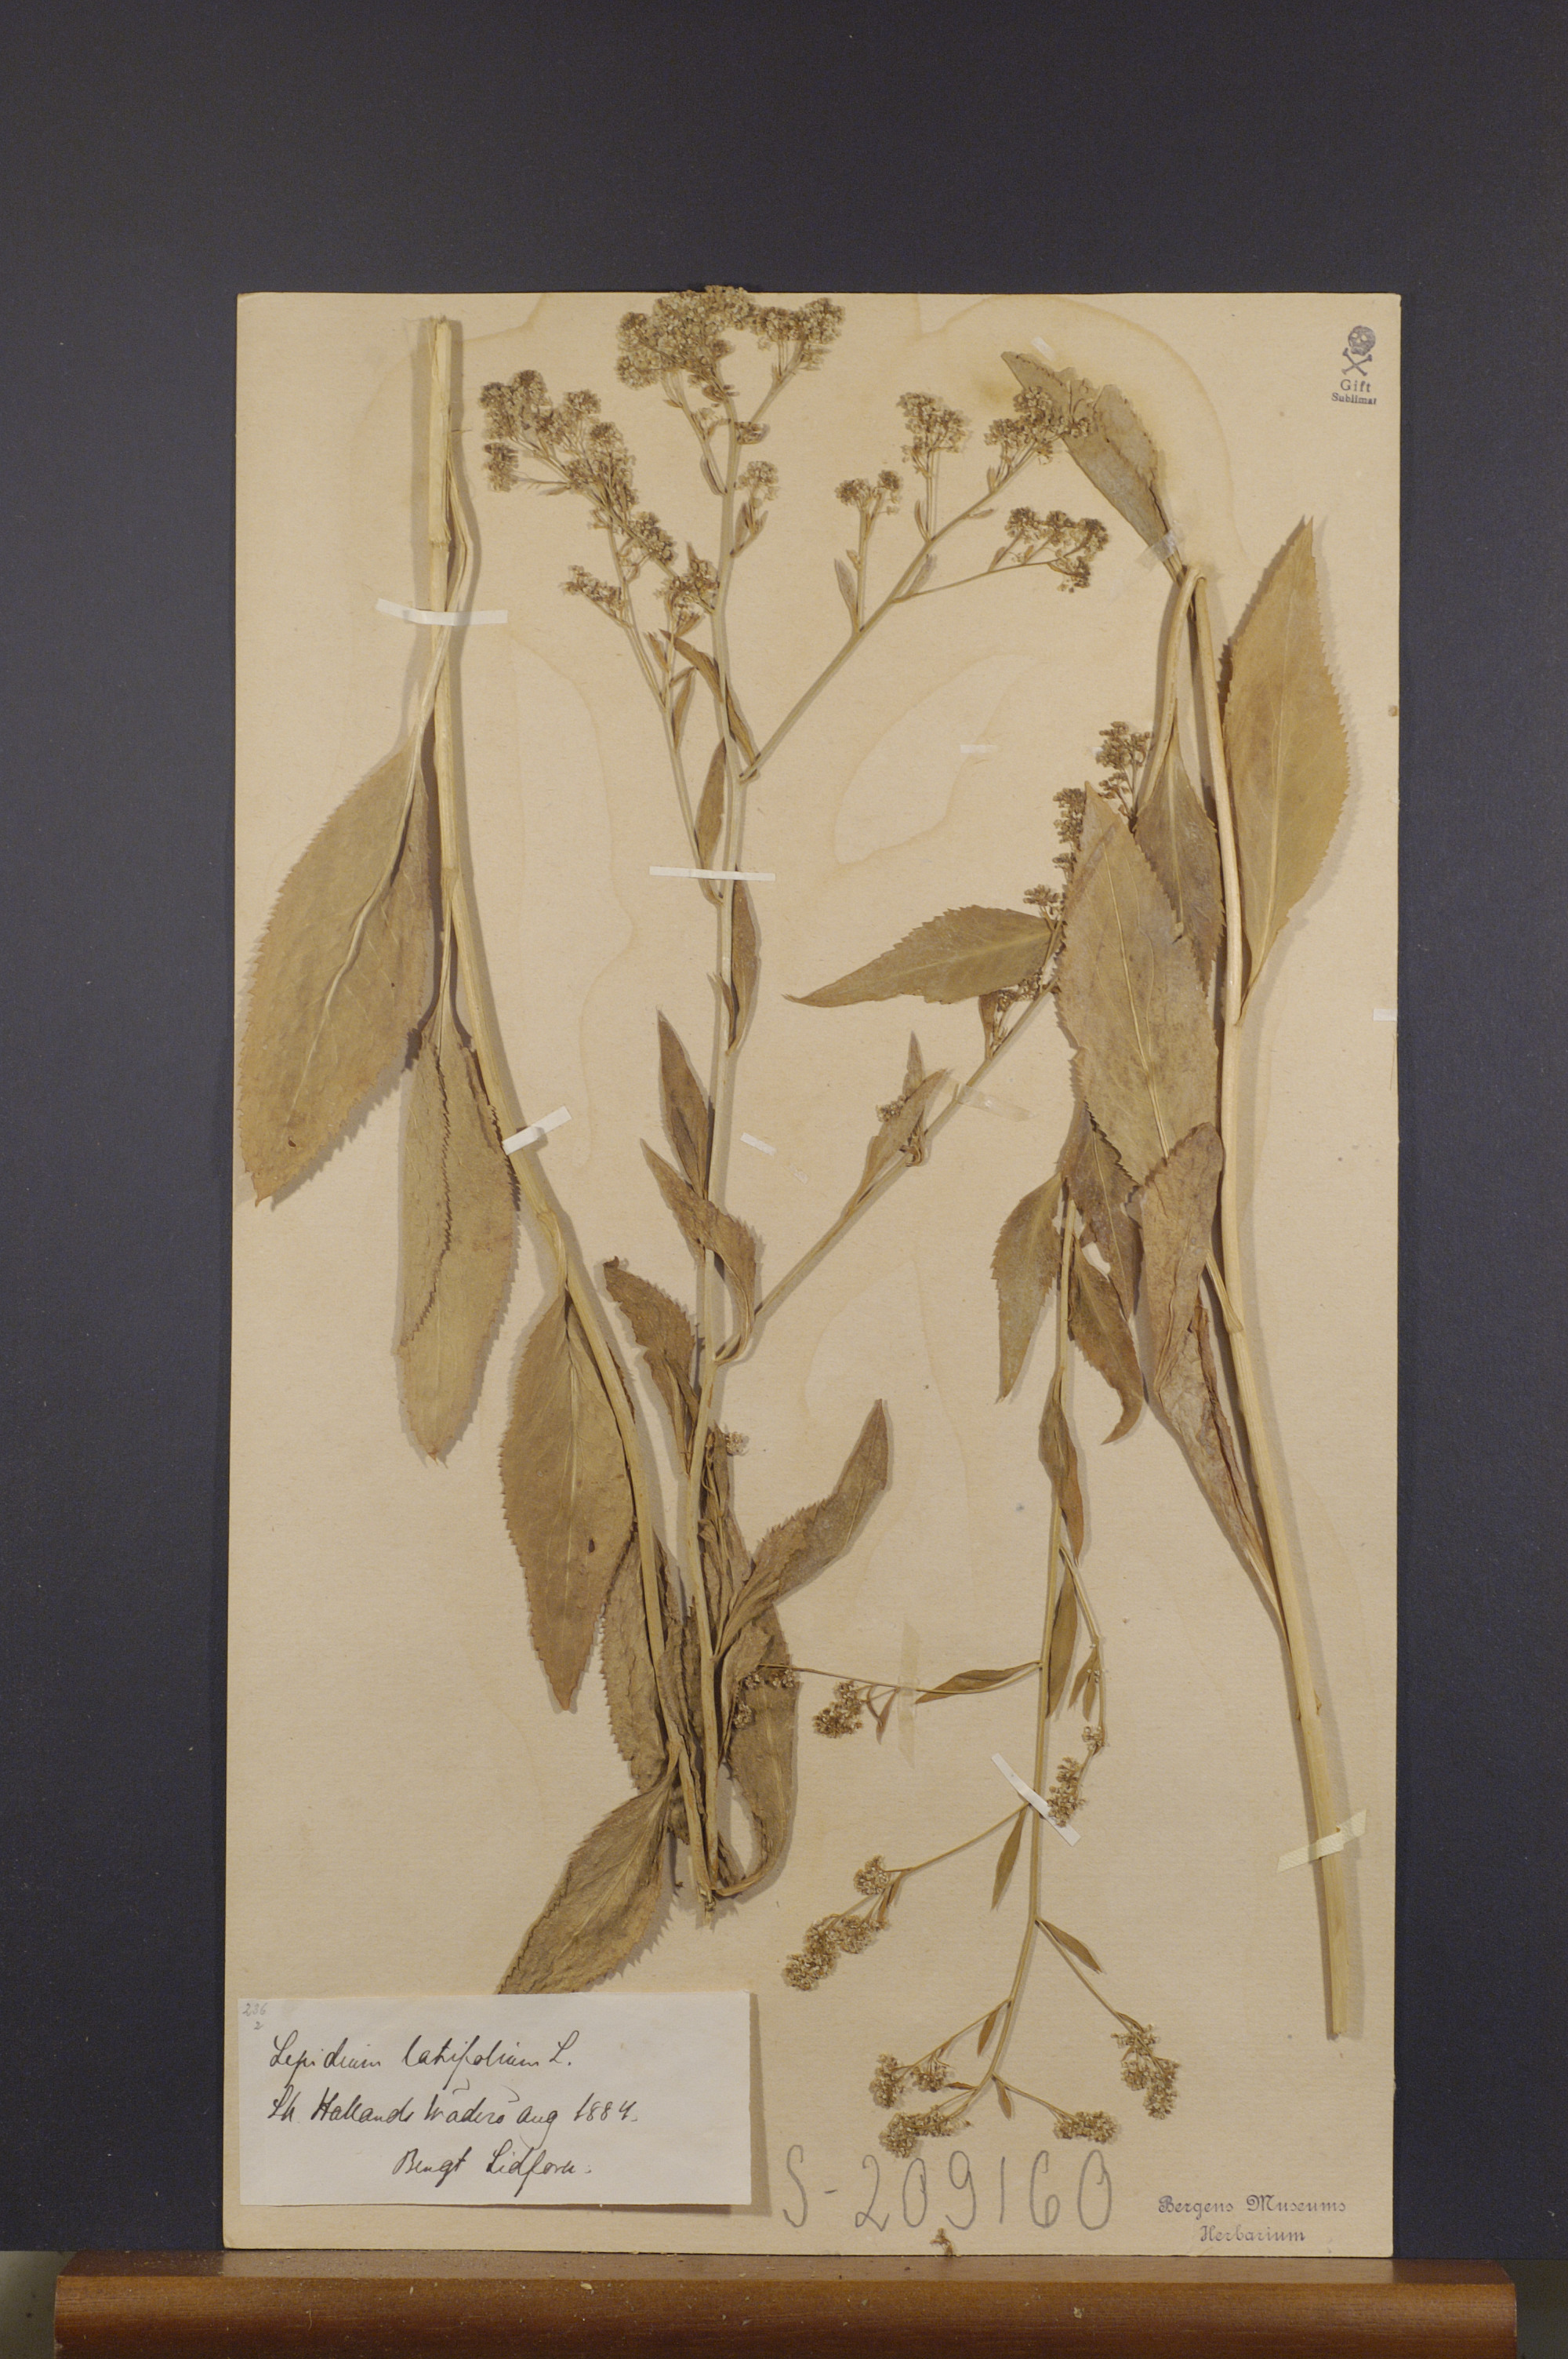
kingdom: Plantae
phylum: Tracheophyta
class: Magnoliopsida
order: Brassicales
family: Brassicaceae
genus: Lepidium
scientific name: Lepidium latifolium
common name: Dittander
